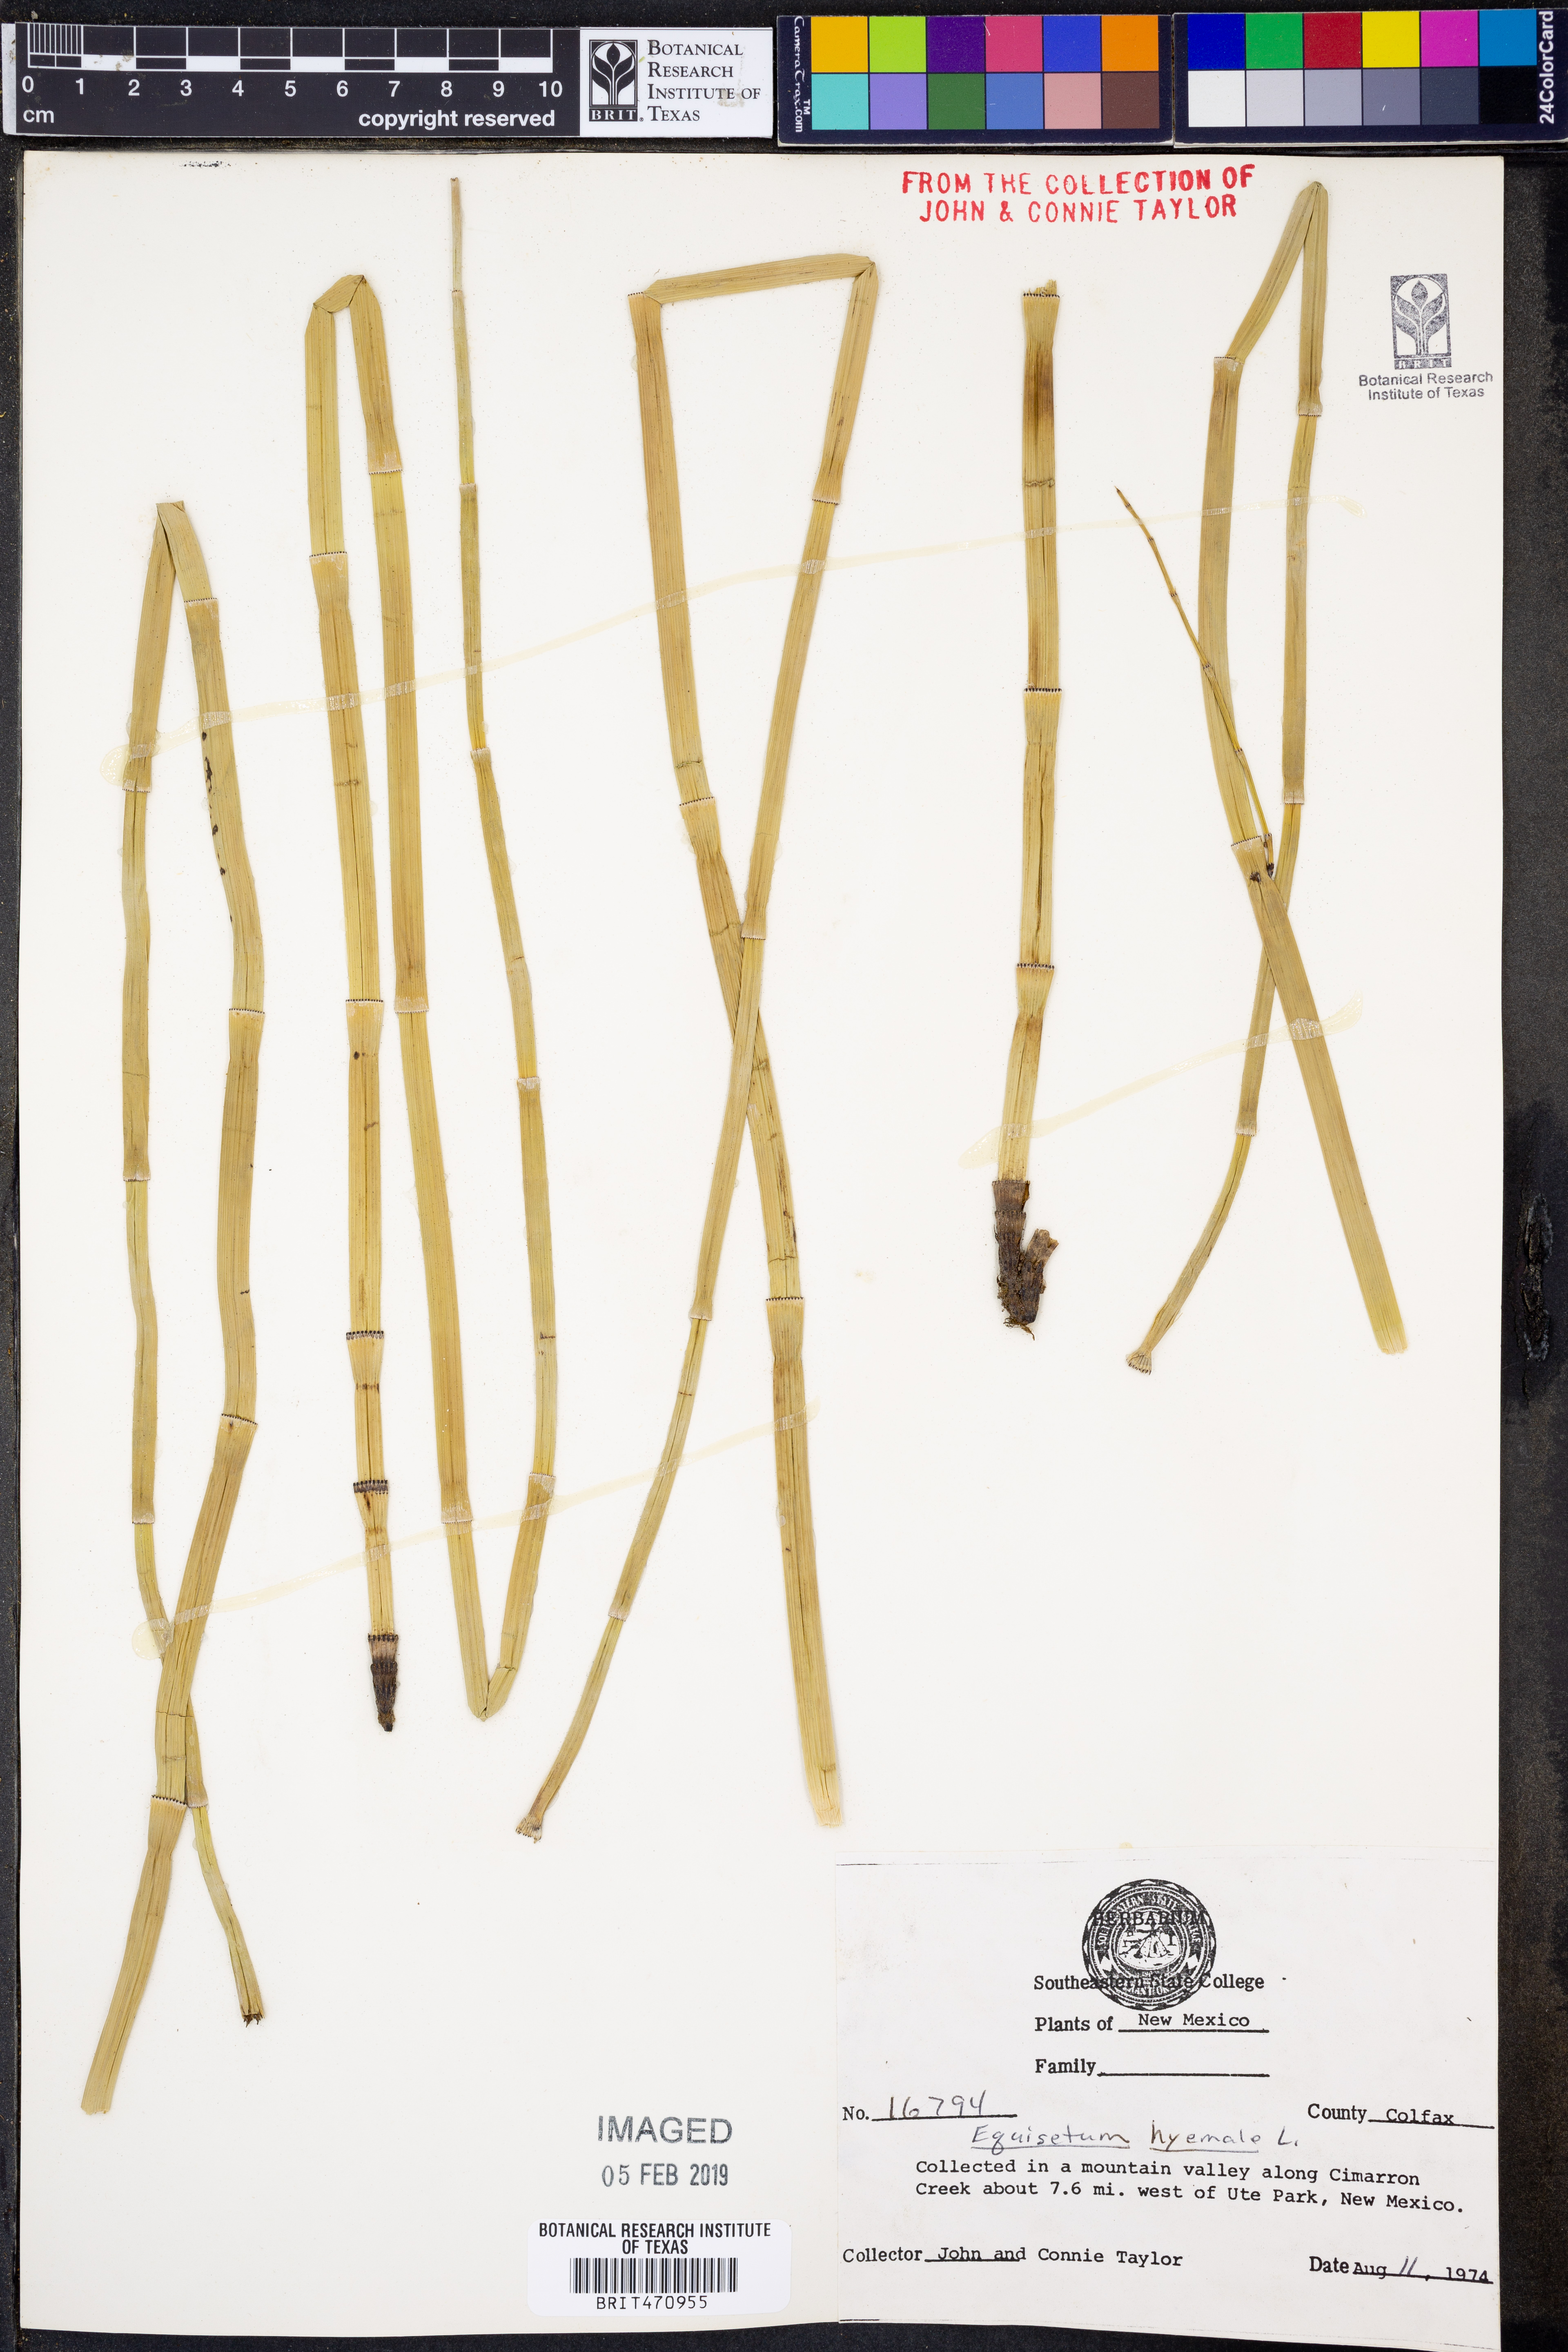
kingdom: Plantae
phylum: Tracheophyta
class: Polypodiopsida
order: Equisetales
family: Equisetaceae
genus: Equisetum
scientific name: Equisetum hyemale
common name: Rough horsetail
